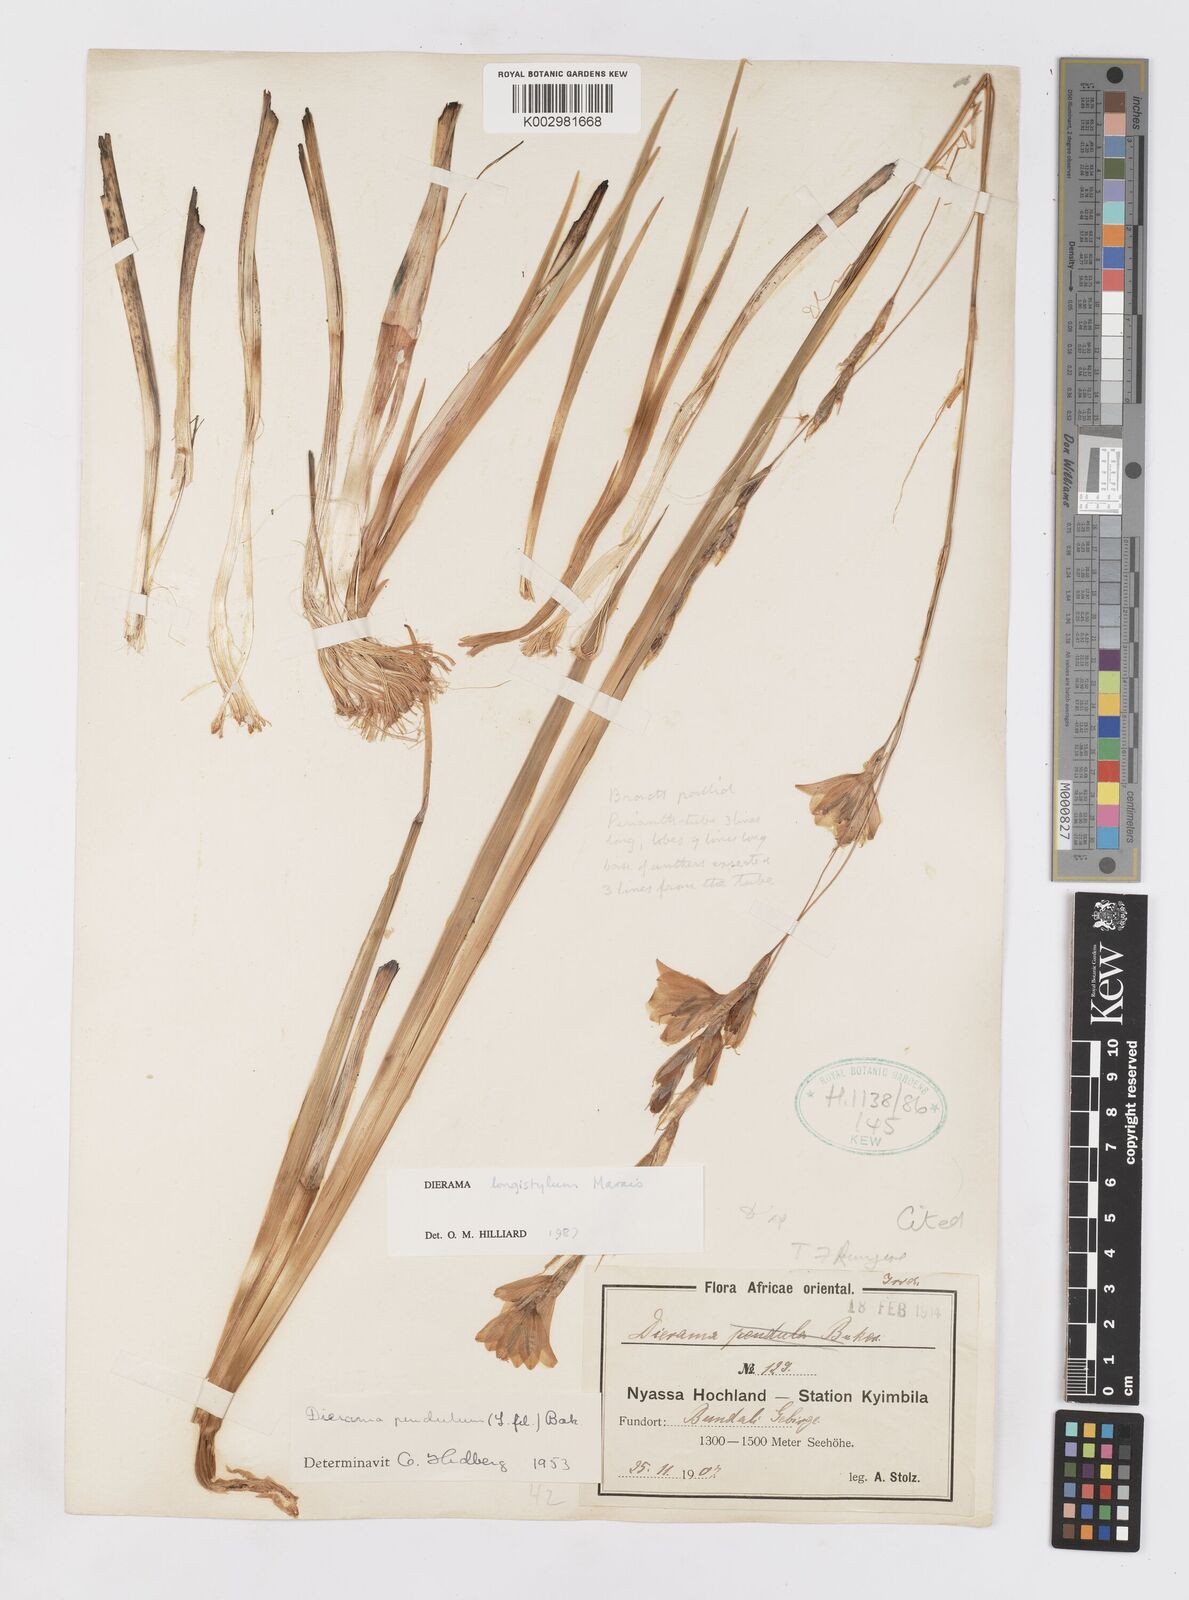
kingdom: Plantae
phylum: Tracheophyta
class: Liliopsida
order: Asparagales
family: Iridaceae
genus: Dierama
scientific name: Dierama longistylum
